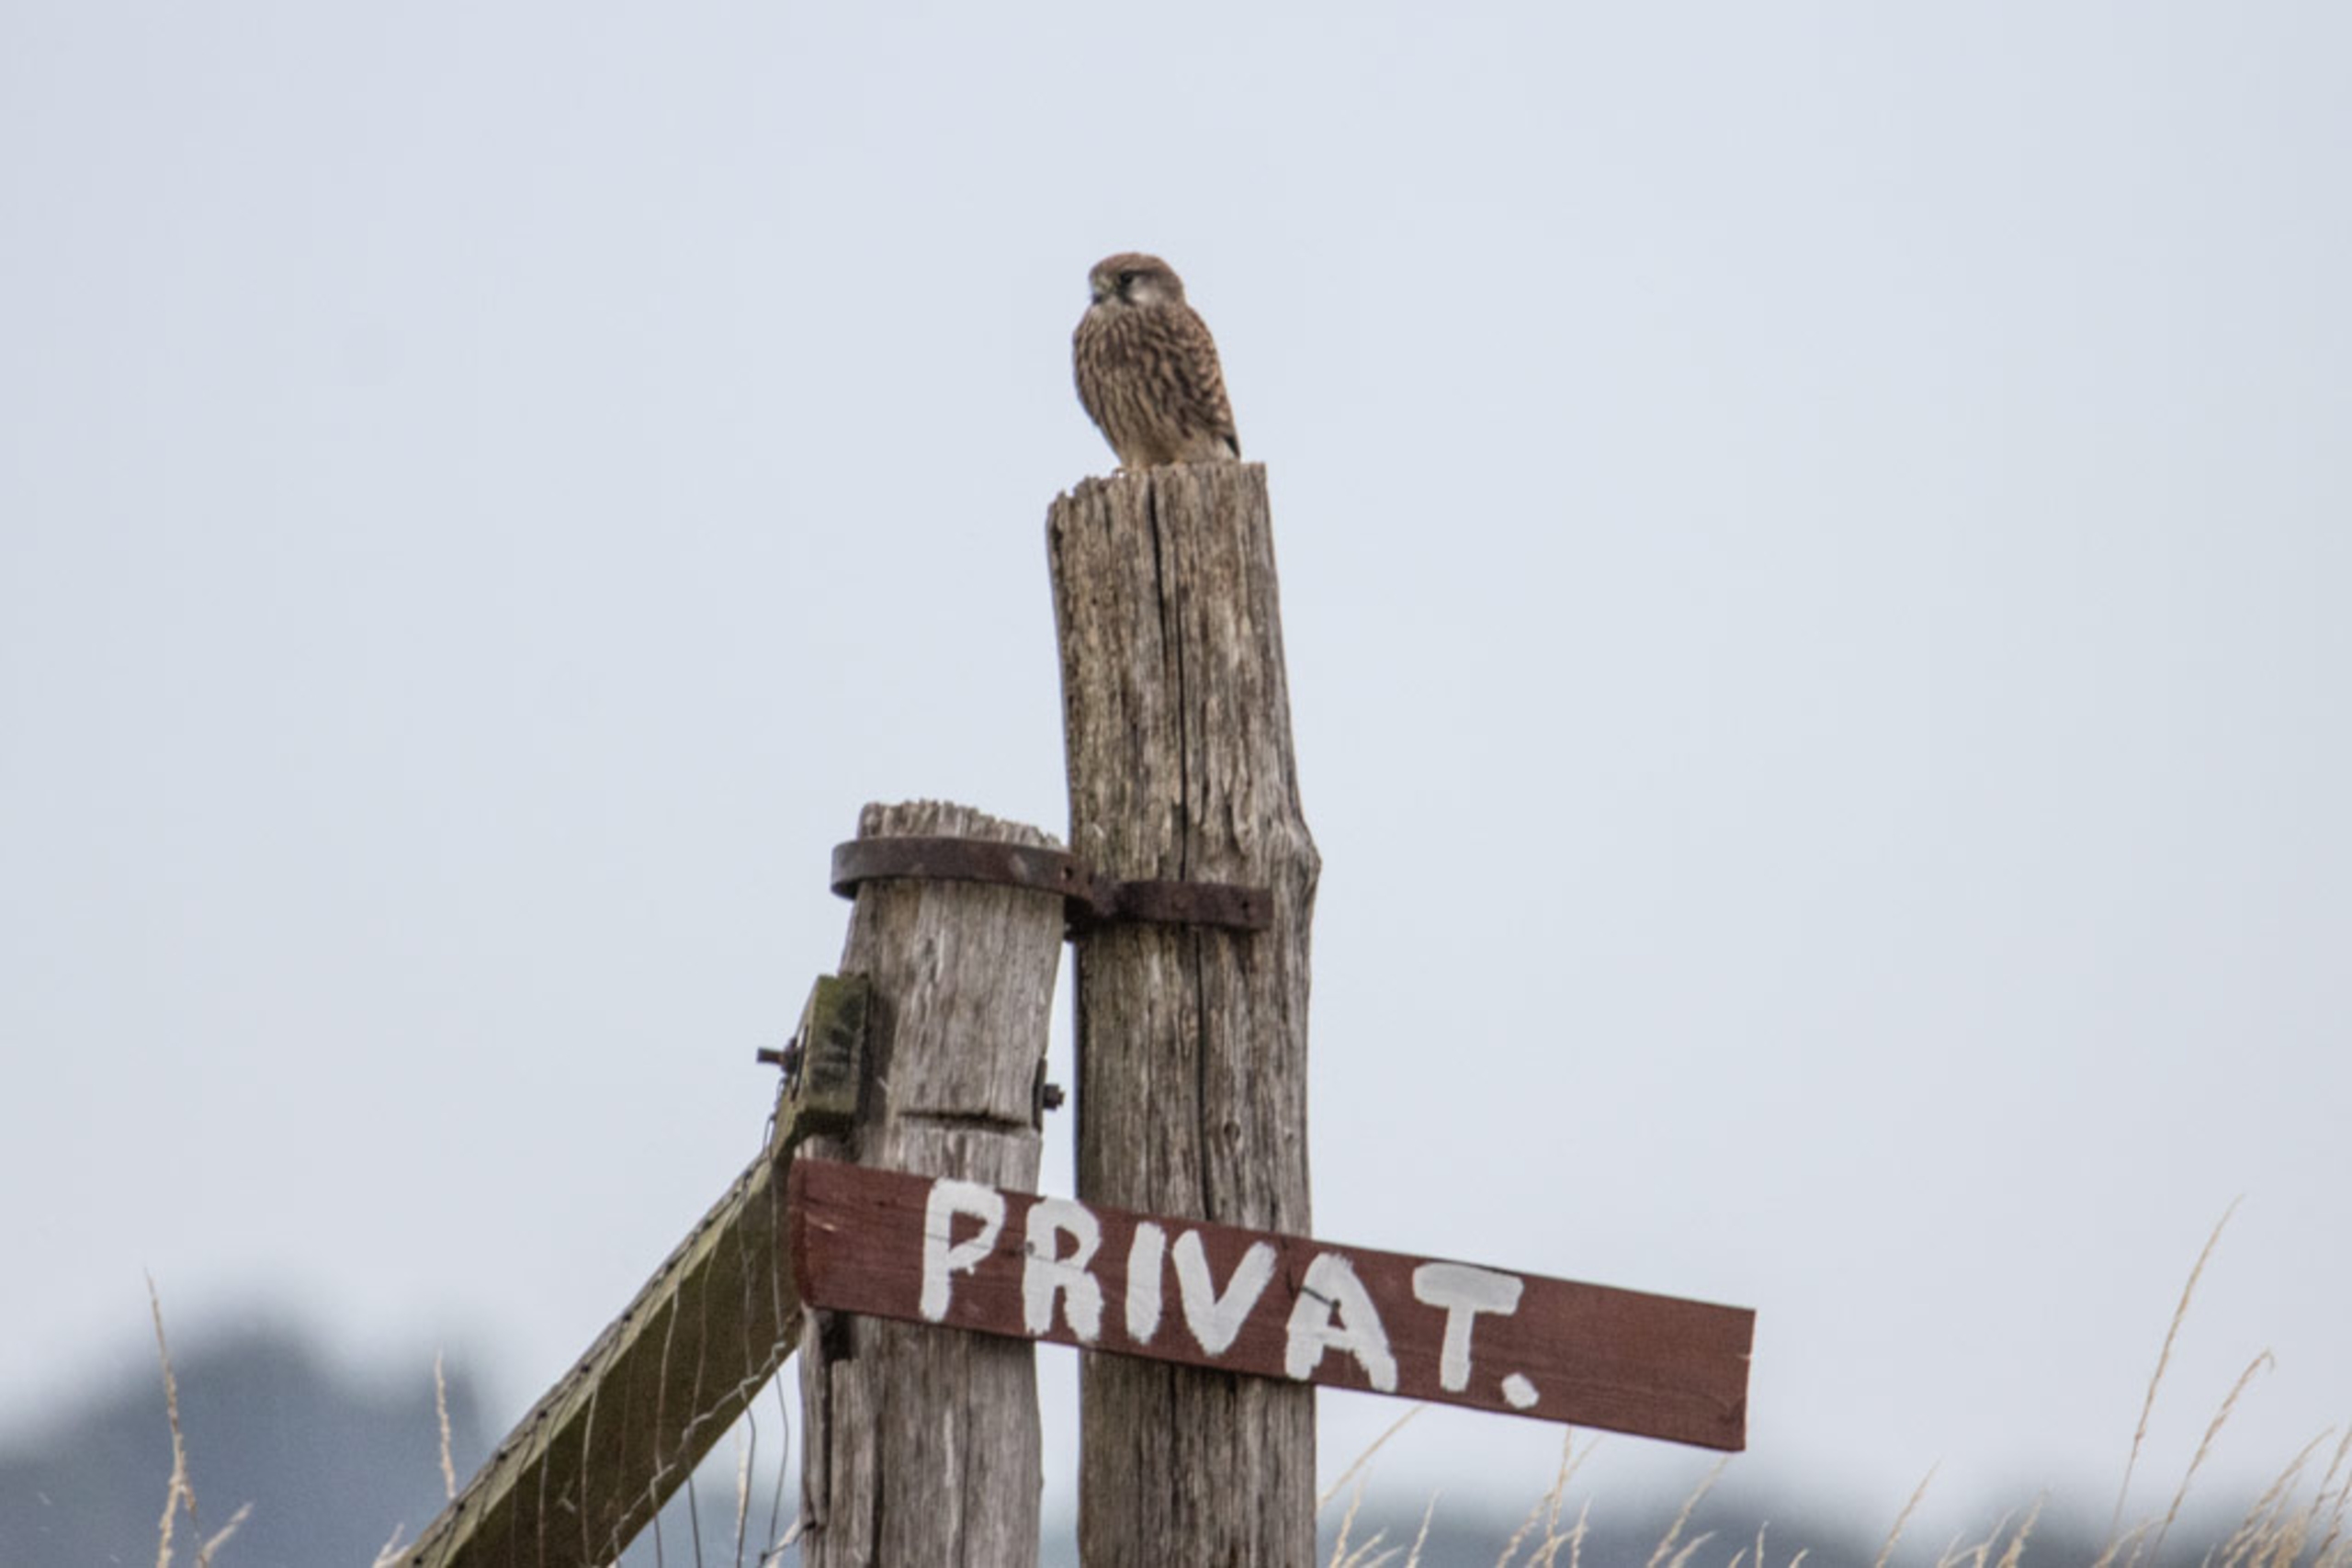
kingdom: Animalia
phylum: Chordata
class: Aves
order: Falconiformes
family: Falconidae
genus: Falco
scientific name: Falco tinnunculus
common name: Tårnfalk
